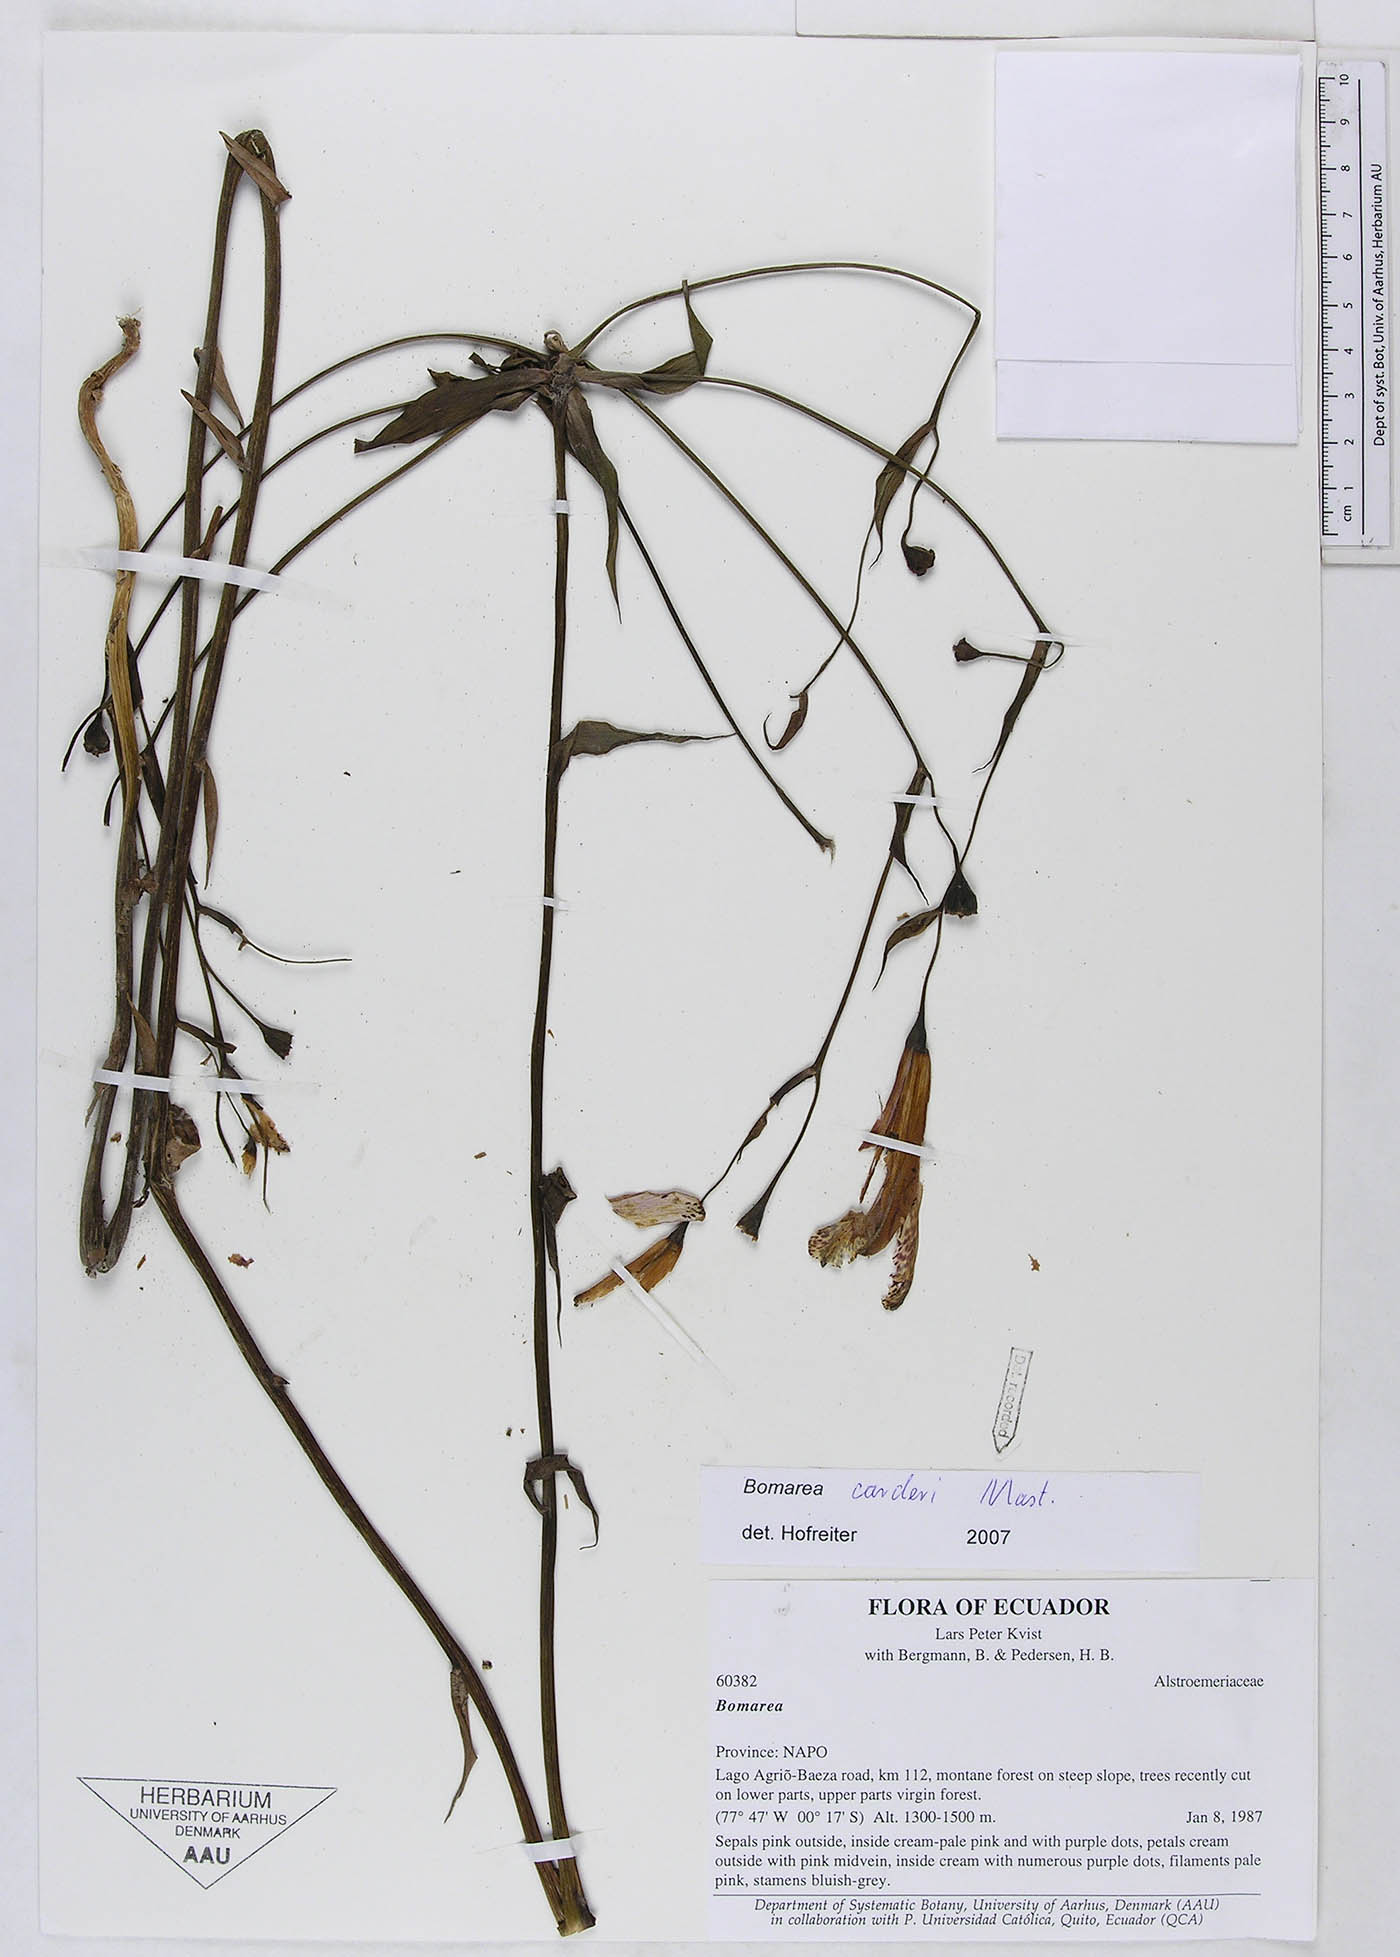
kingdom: Plantae
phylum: Tracheophyta
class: Liliopsida
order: Liliales
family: Alstroemeriaceae
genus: Bomarea
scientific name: Bomarea carderi
